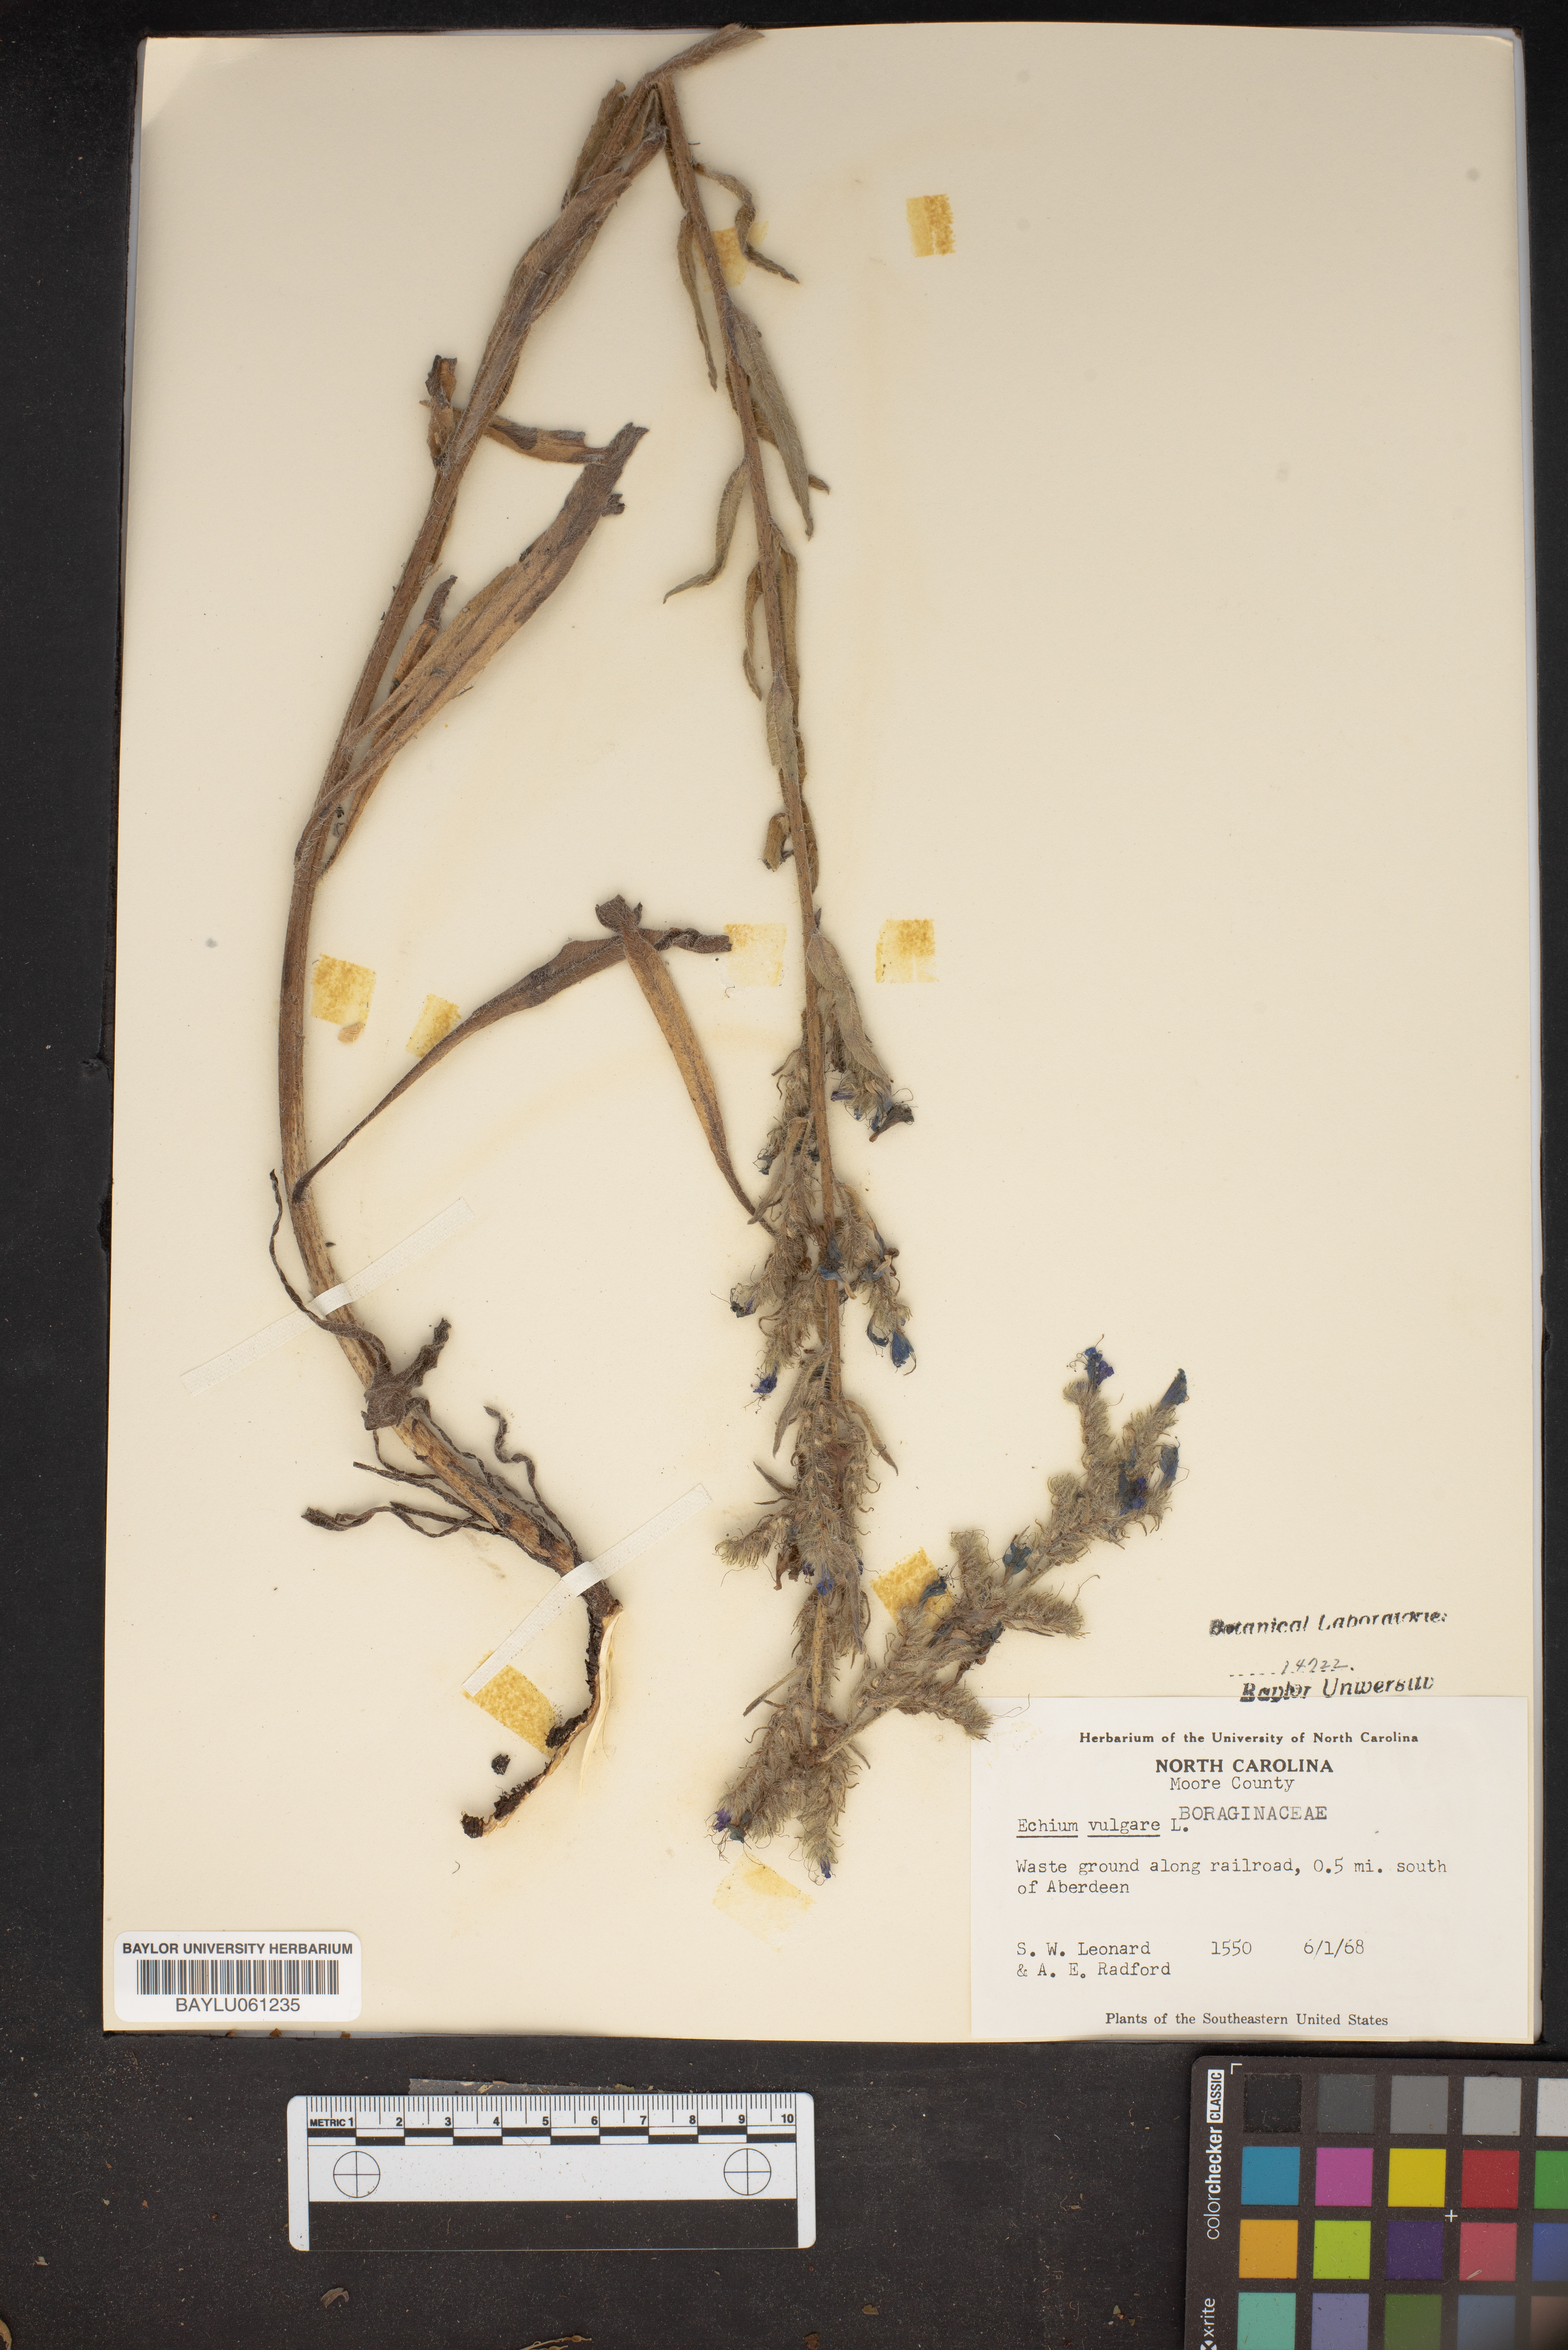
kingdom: Plantae
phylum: Tracheophyta
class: Magnoliopsida
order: Boraginales
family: Boraginaceae
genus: Echium
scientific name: Echium vulgare
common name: Common viper's bugloss
